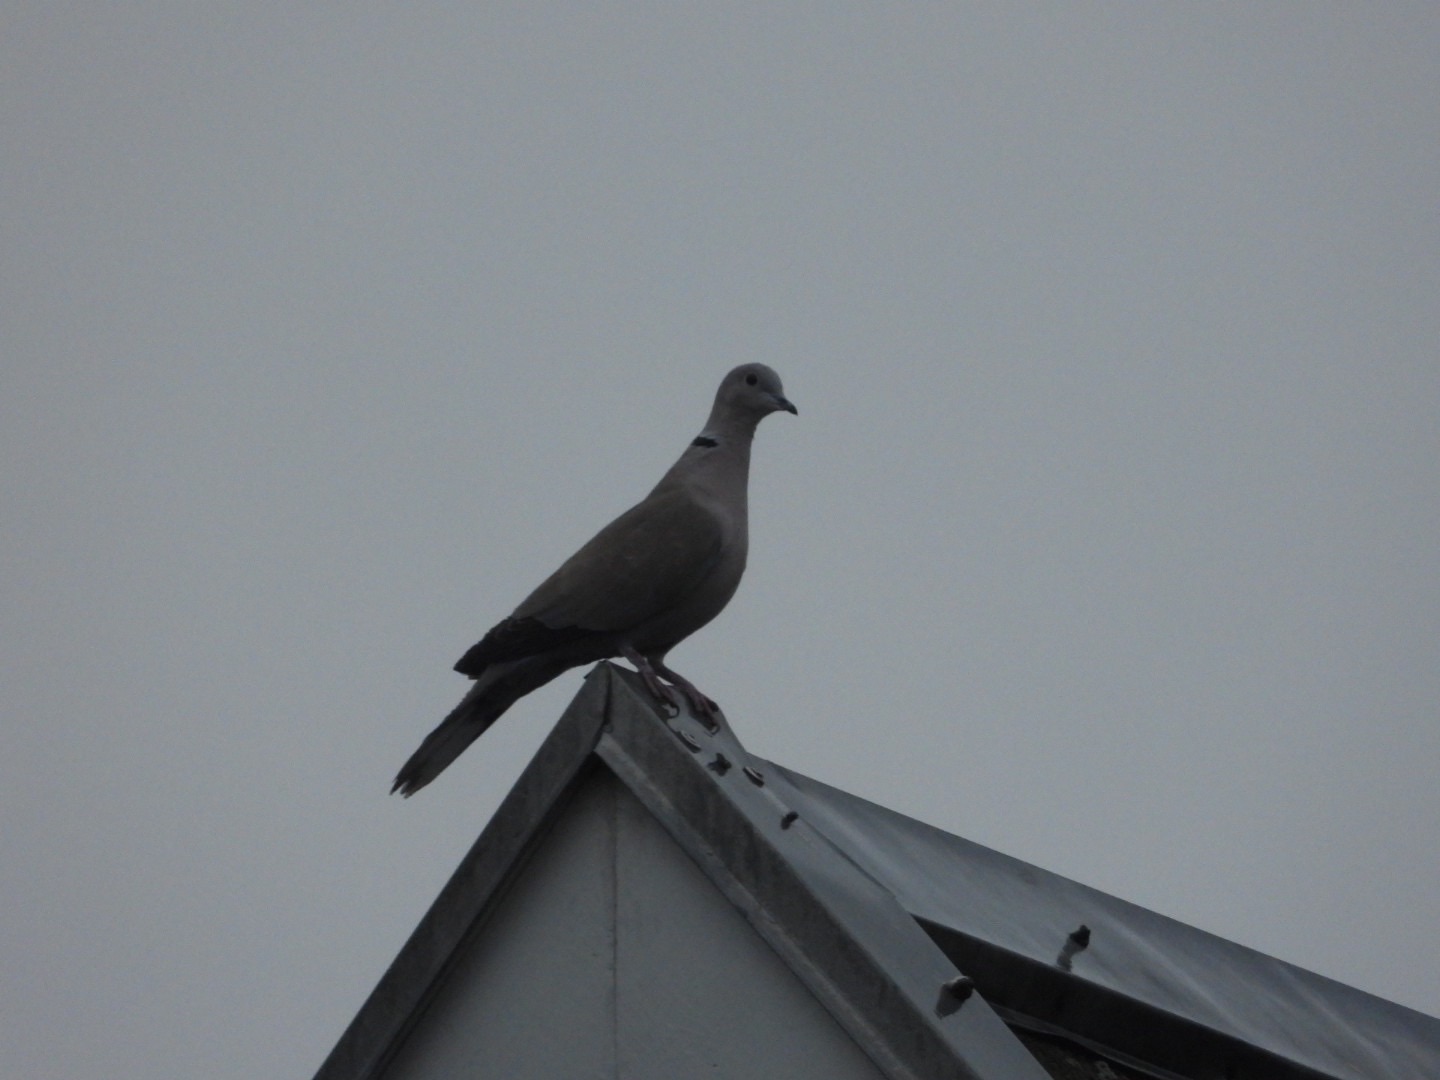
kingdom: Animalia
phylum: Chordata
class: Aves
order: Columbiformes
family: Columbidae
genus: Streptopelia
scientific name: Streptopelia decaocto
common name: Tyrkerdue
